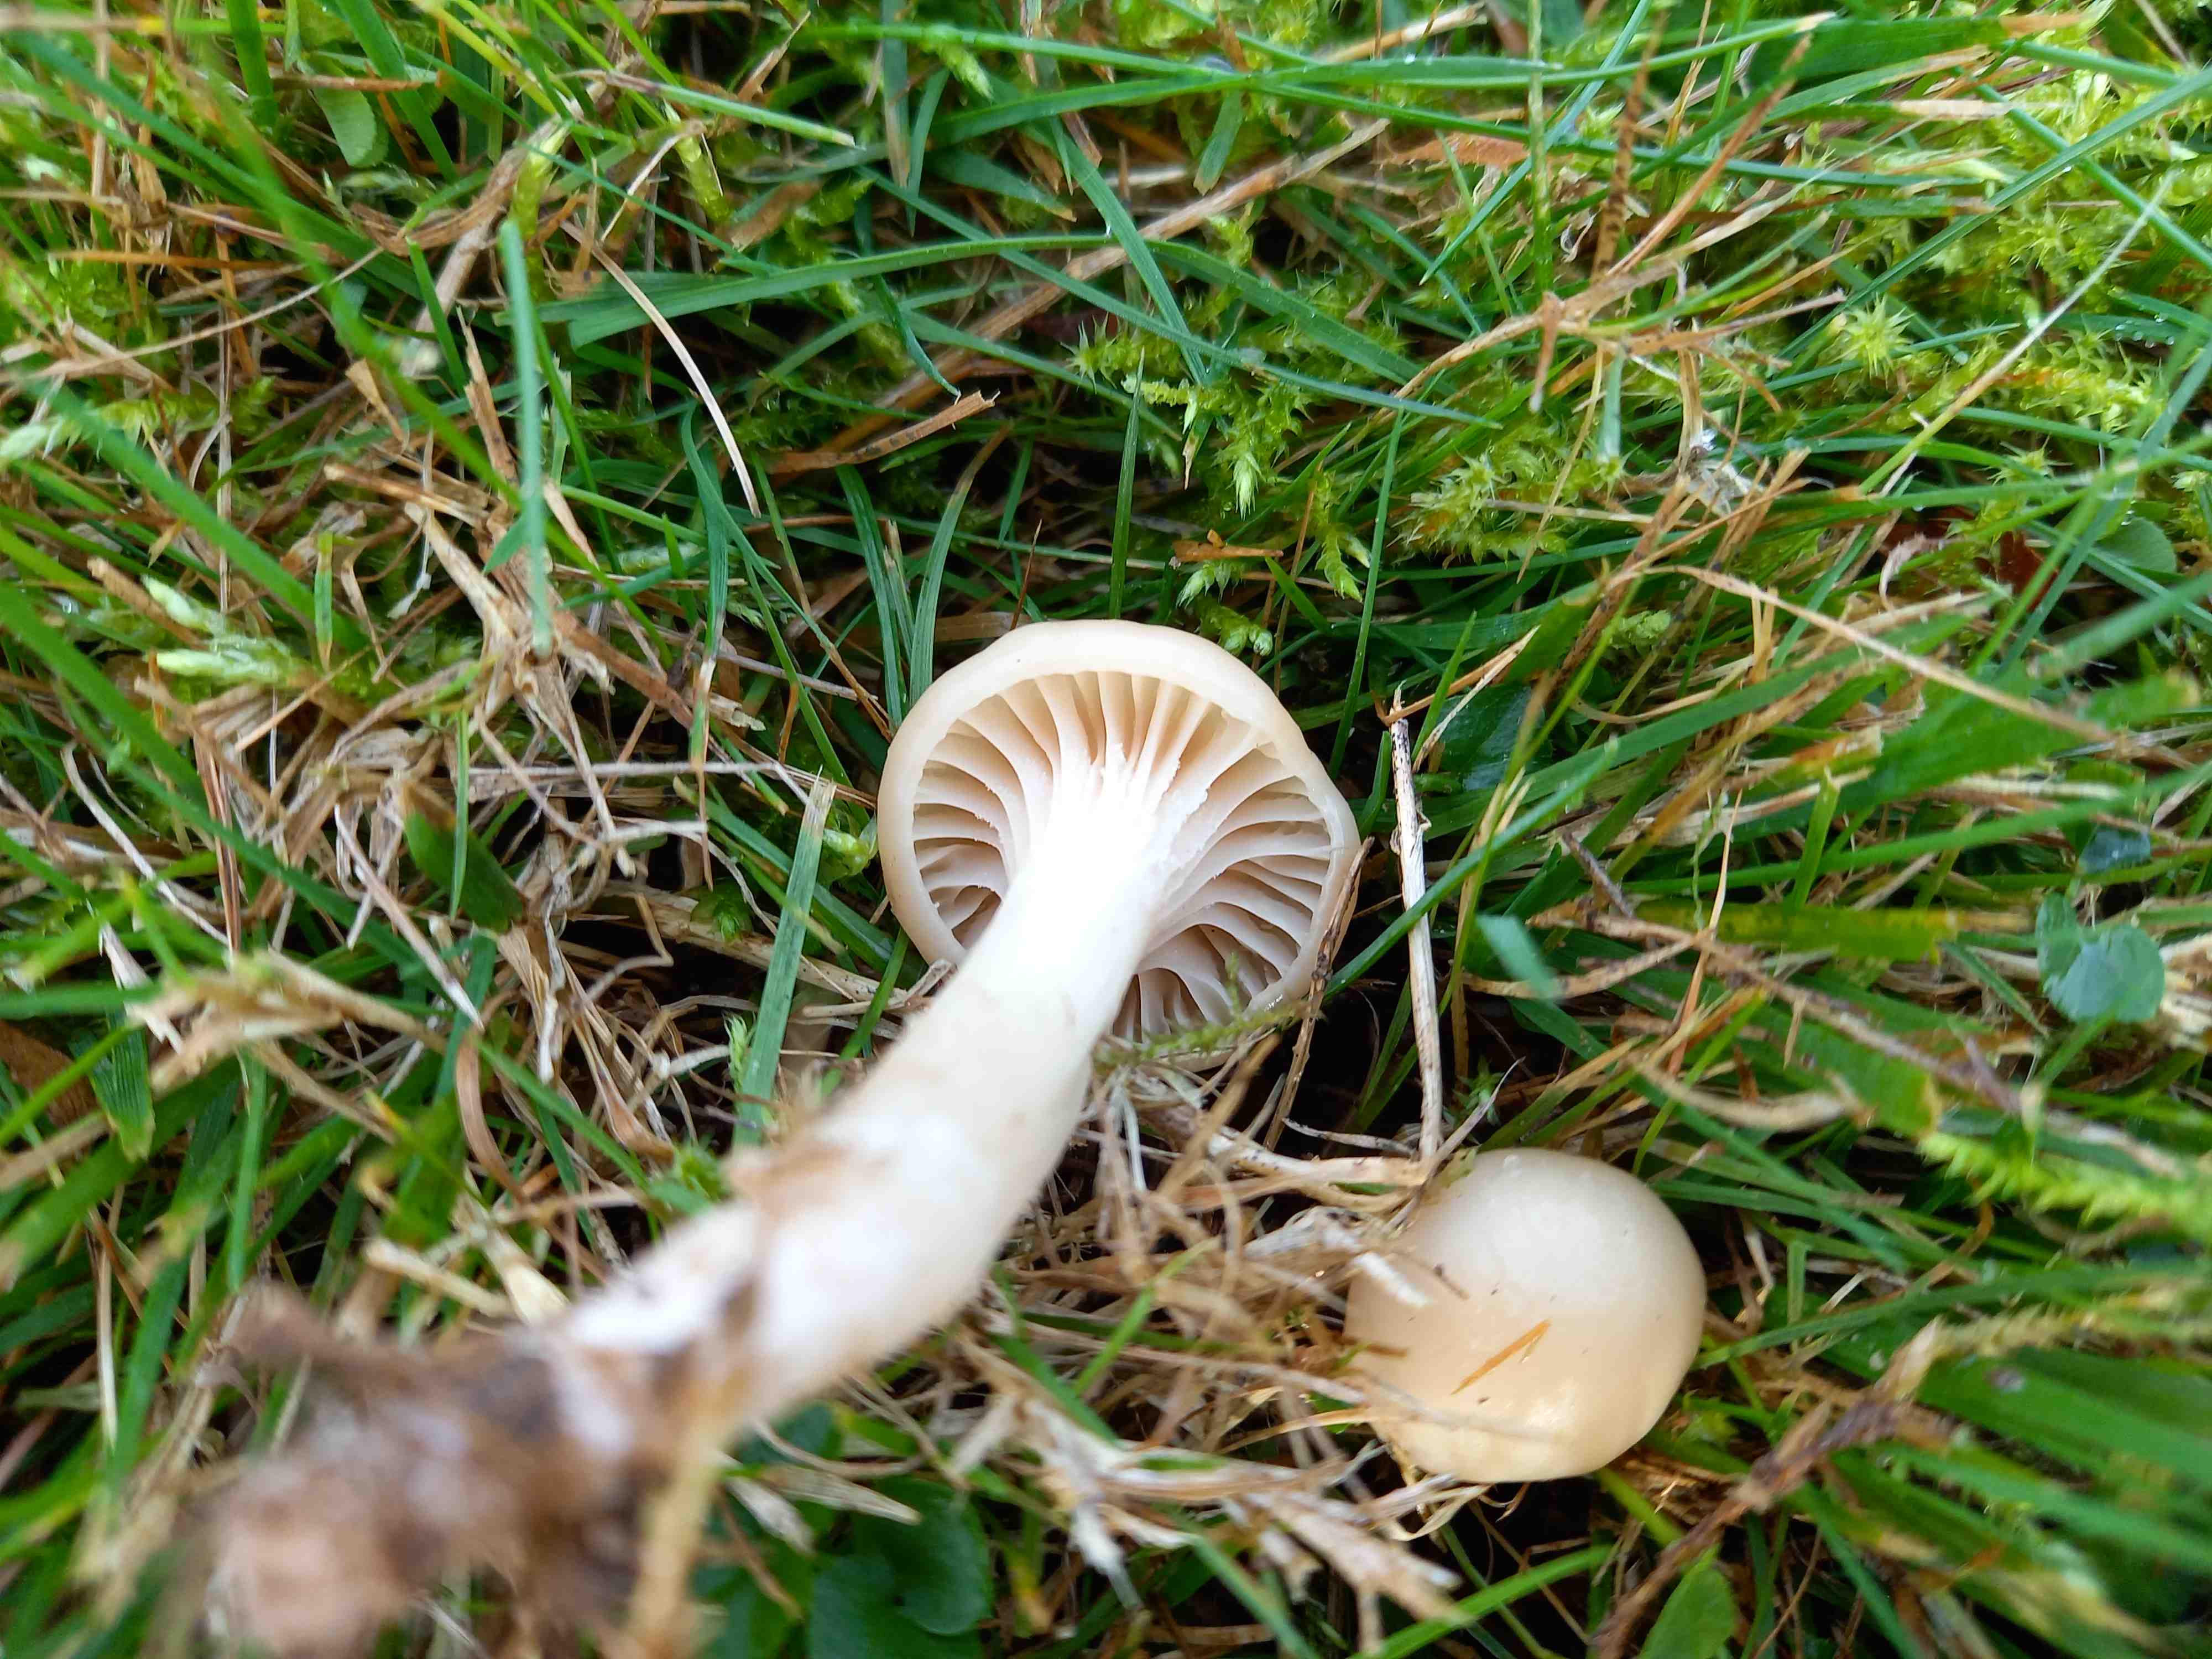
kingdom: Fungi
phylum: Basidiomycota
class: Agaricomycetes
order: Agaricales
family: Hygrophoraceae
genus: Cuphophyllus
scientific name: Cuphophyllus virgineus
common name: snehvid vokshat
